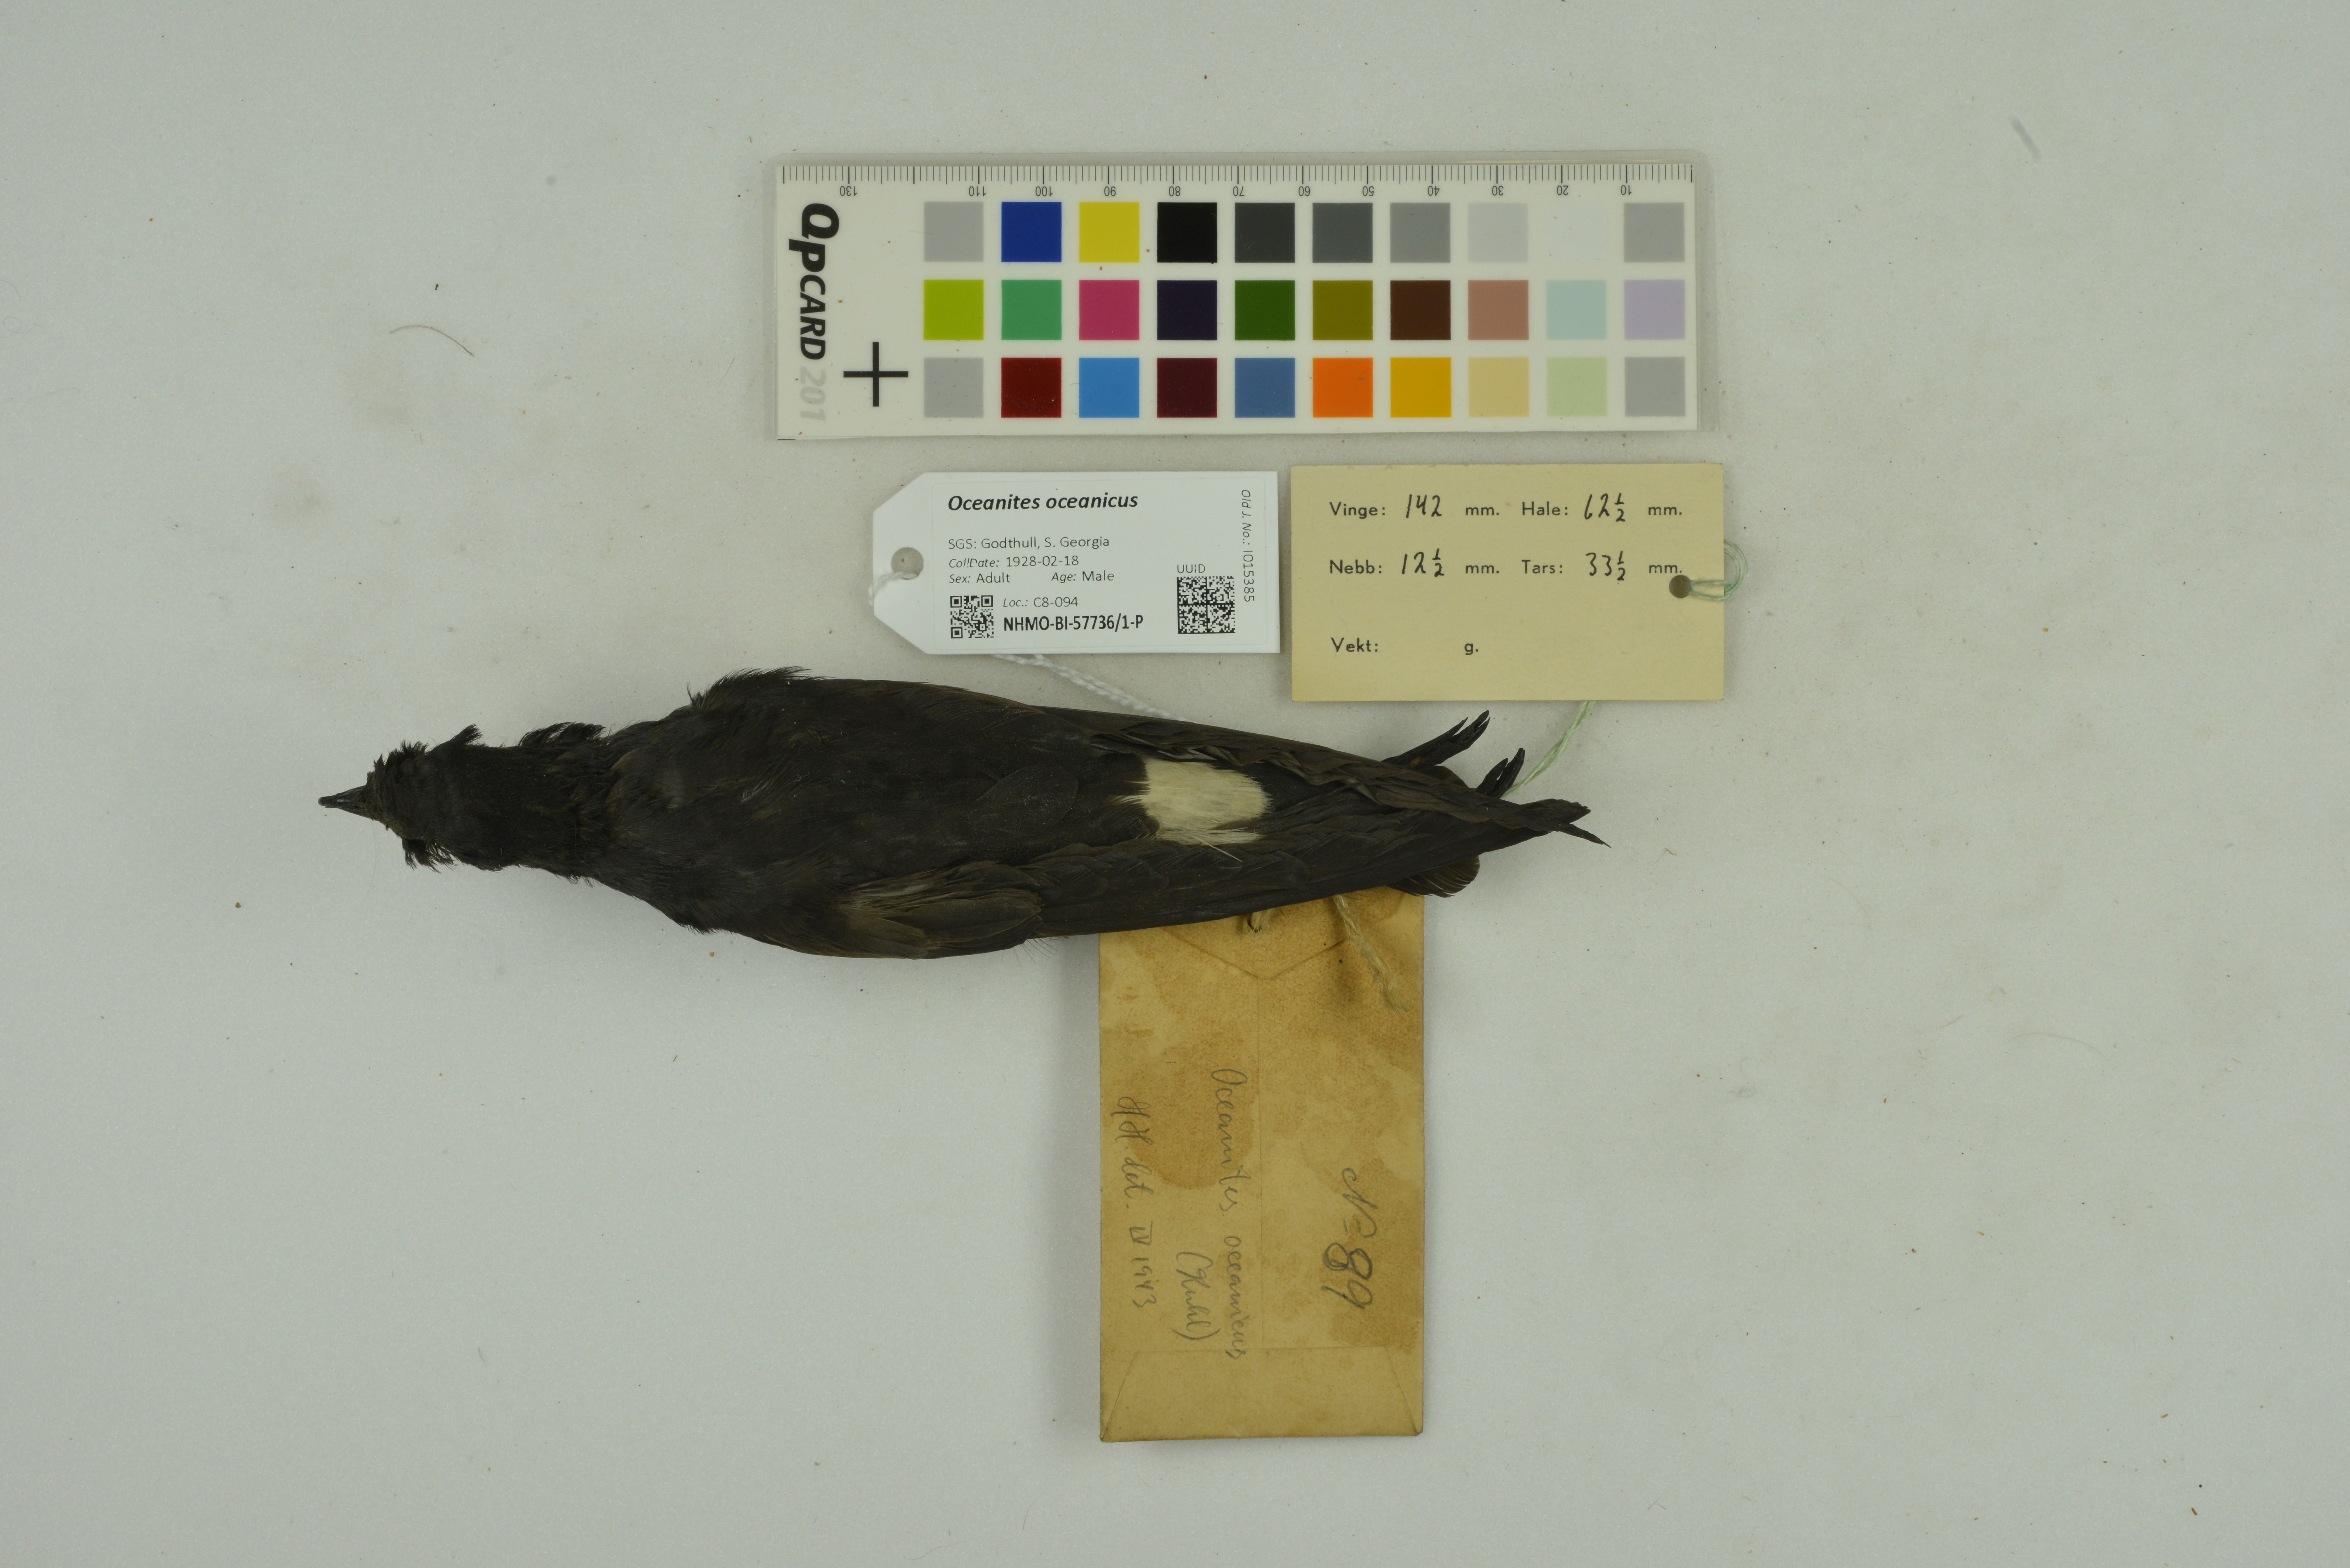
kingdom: Animalia
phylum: Chordata
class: Aves
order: Procellariiformes
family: Hydrobatidae
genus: Oceanites
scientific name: Oceanites oceanicus
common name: Wilson's storm petrel
